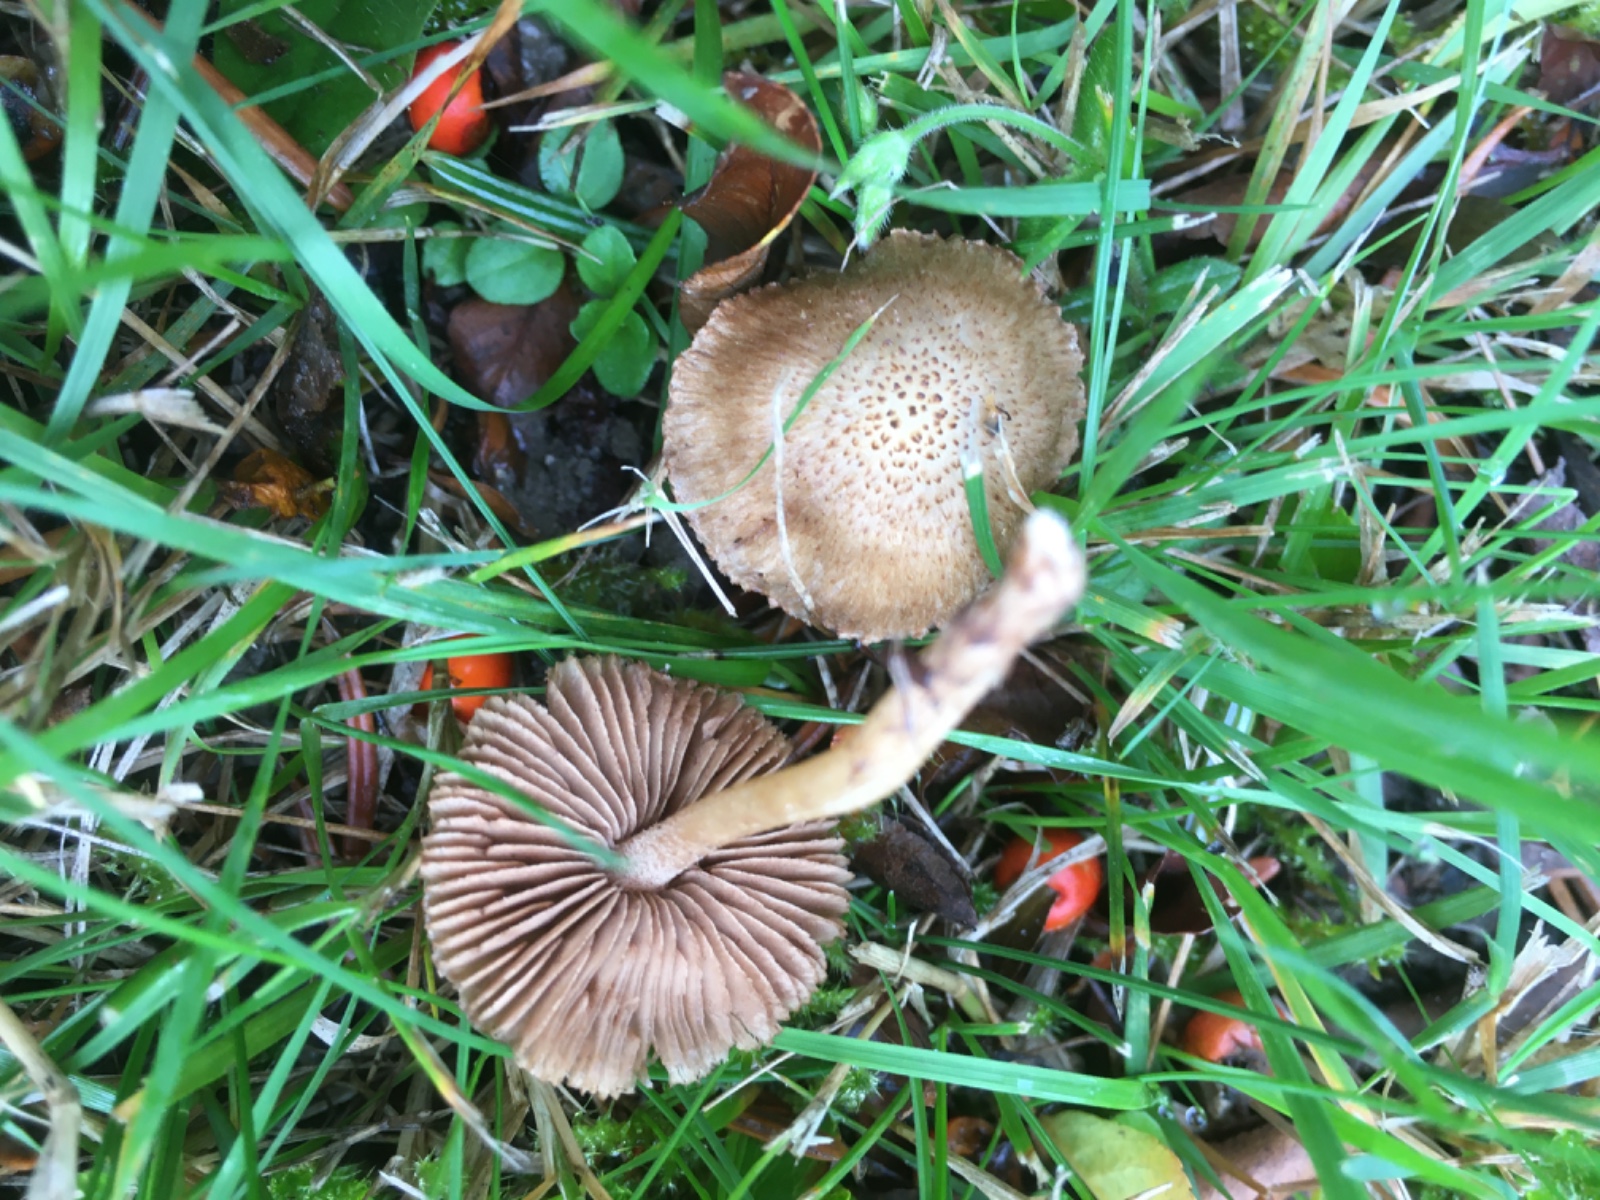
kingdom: Fungi
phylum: Basidiomycota
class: Agaricomycetes
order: Agaricales
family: Inocybaceae
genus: Inocybe
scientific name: Inocybe
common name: trævlhat
